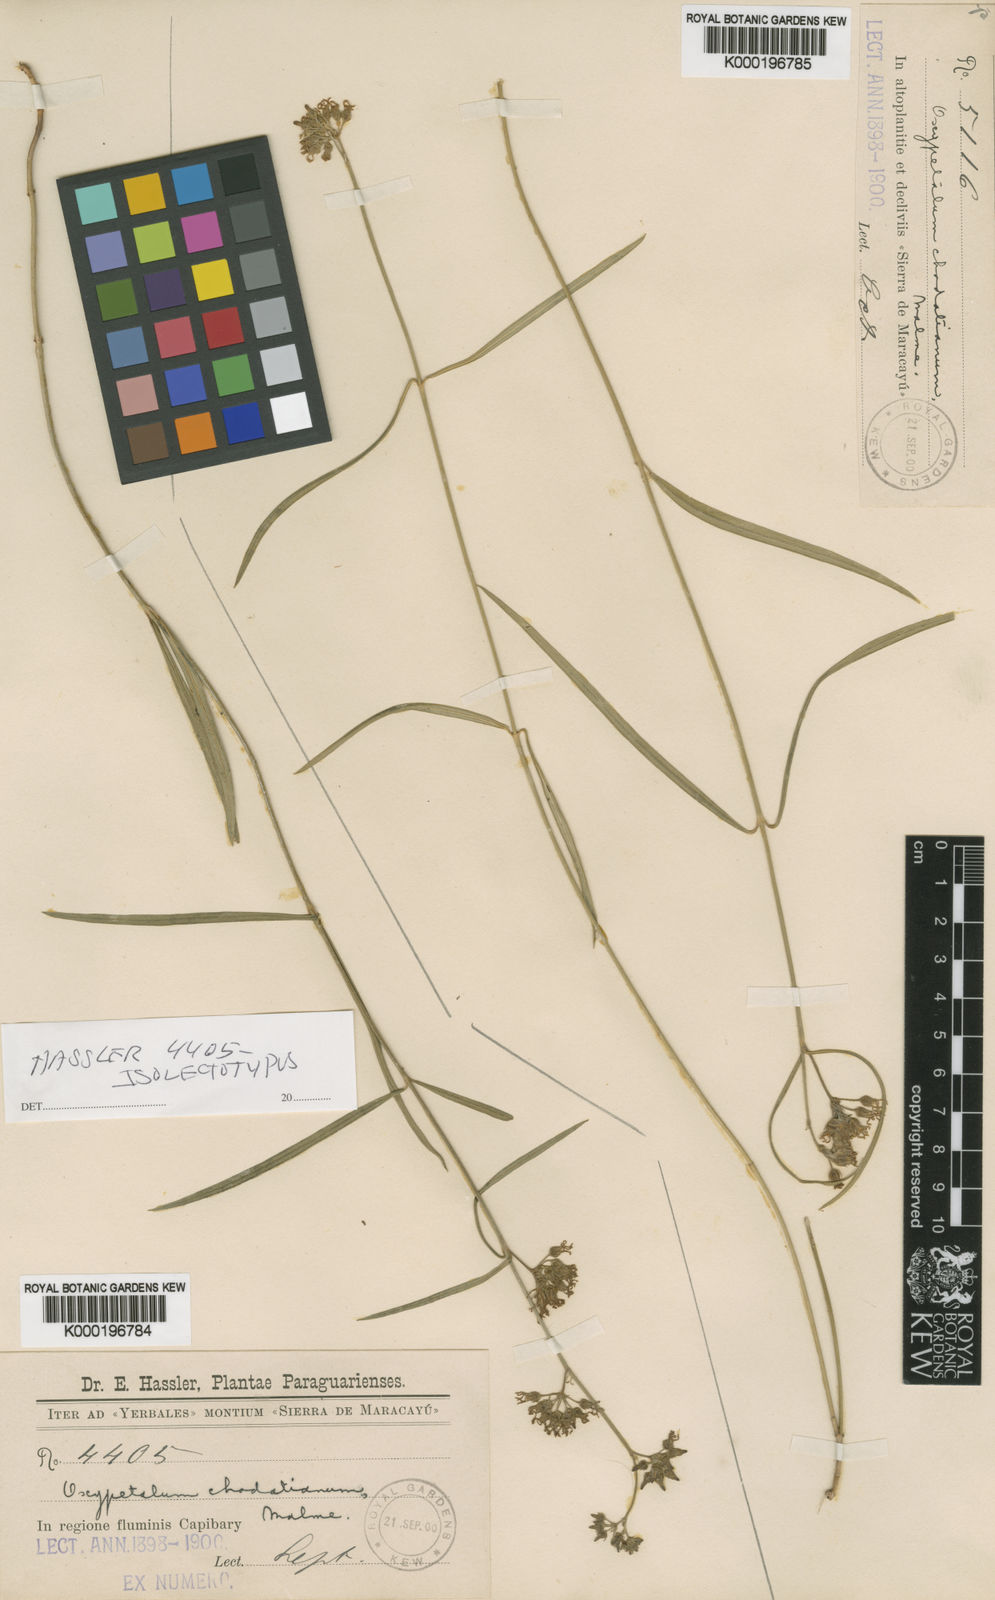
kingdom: Plantae
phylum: Tracheophyta
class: Magnoliopsida
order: Gentianales
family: Apocynaceae
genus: Oxypetalum
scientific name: Oxypetalum chodatianum
